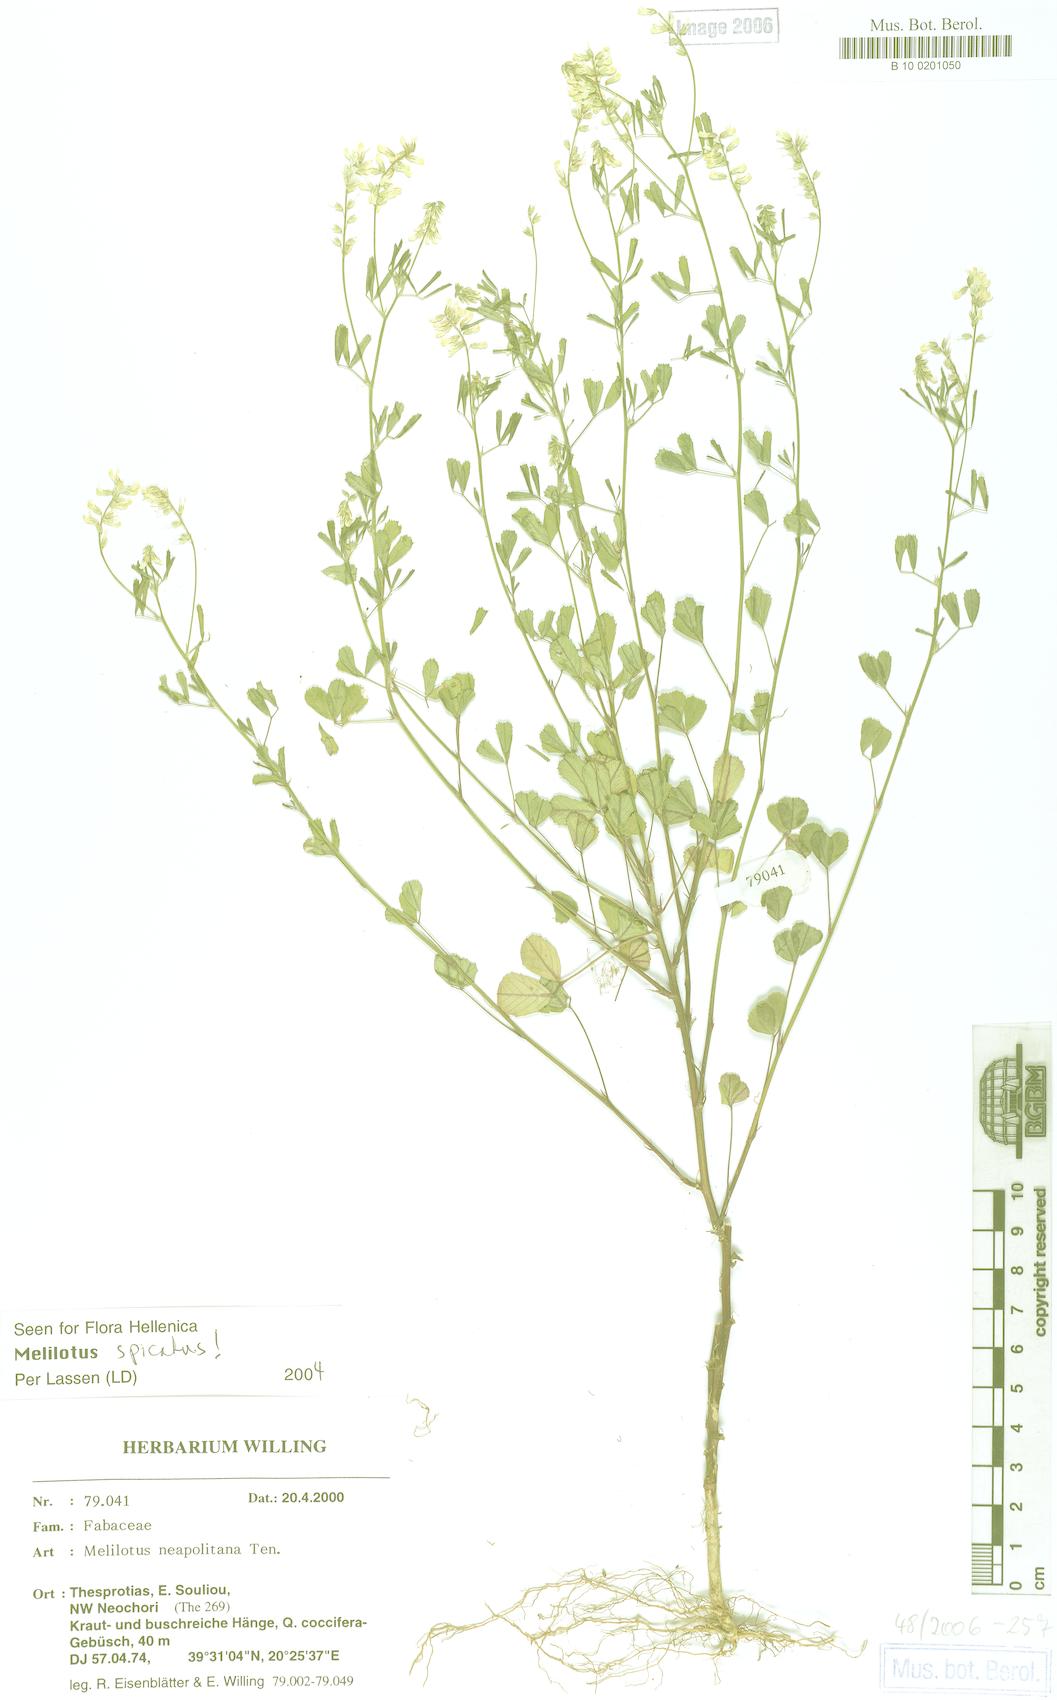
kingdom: Plantae
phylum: Tracheophyta
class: Magnoliopsida
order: Fabales
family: Fabaceae
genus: Melilotus
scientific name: Melilotus neapolitanus
